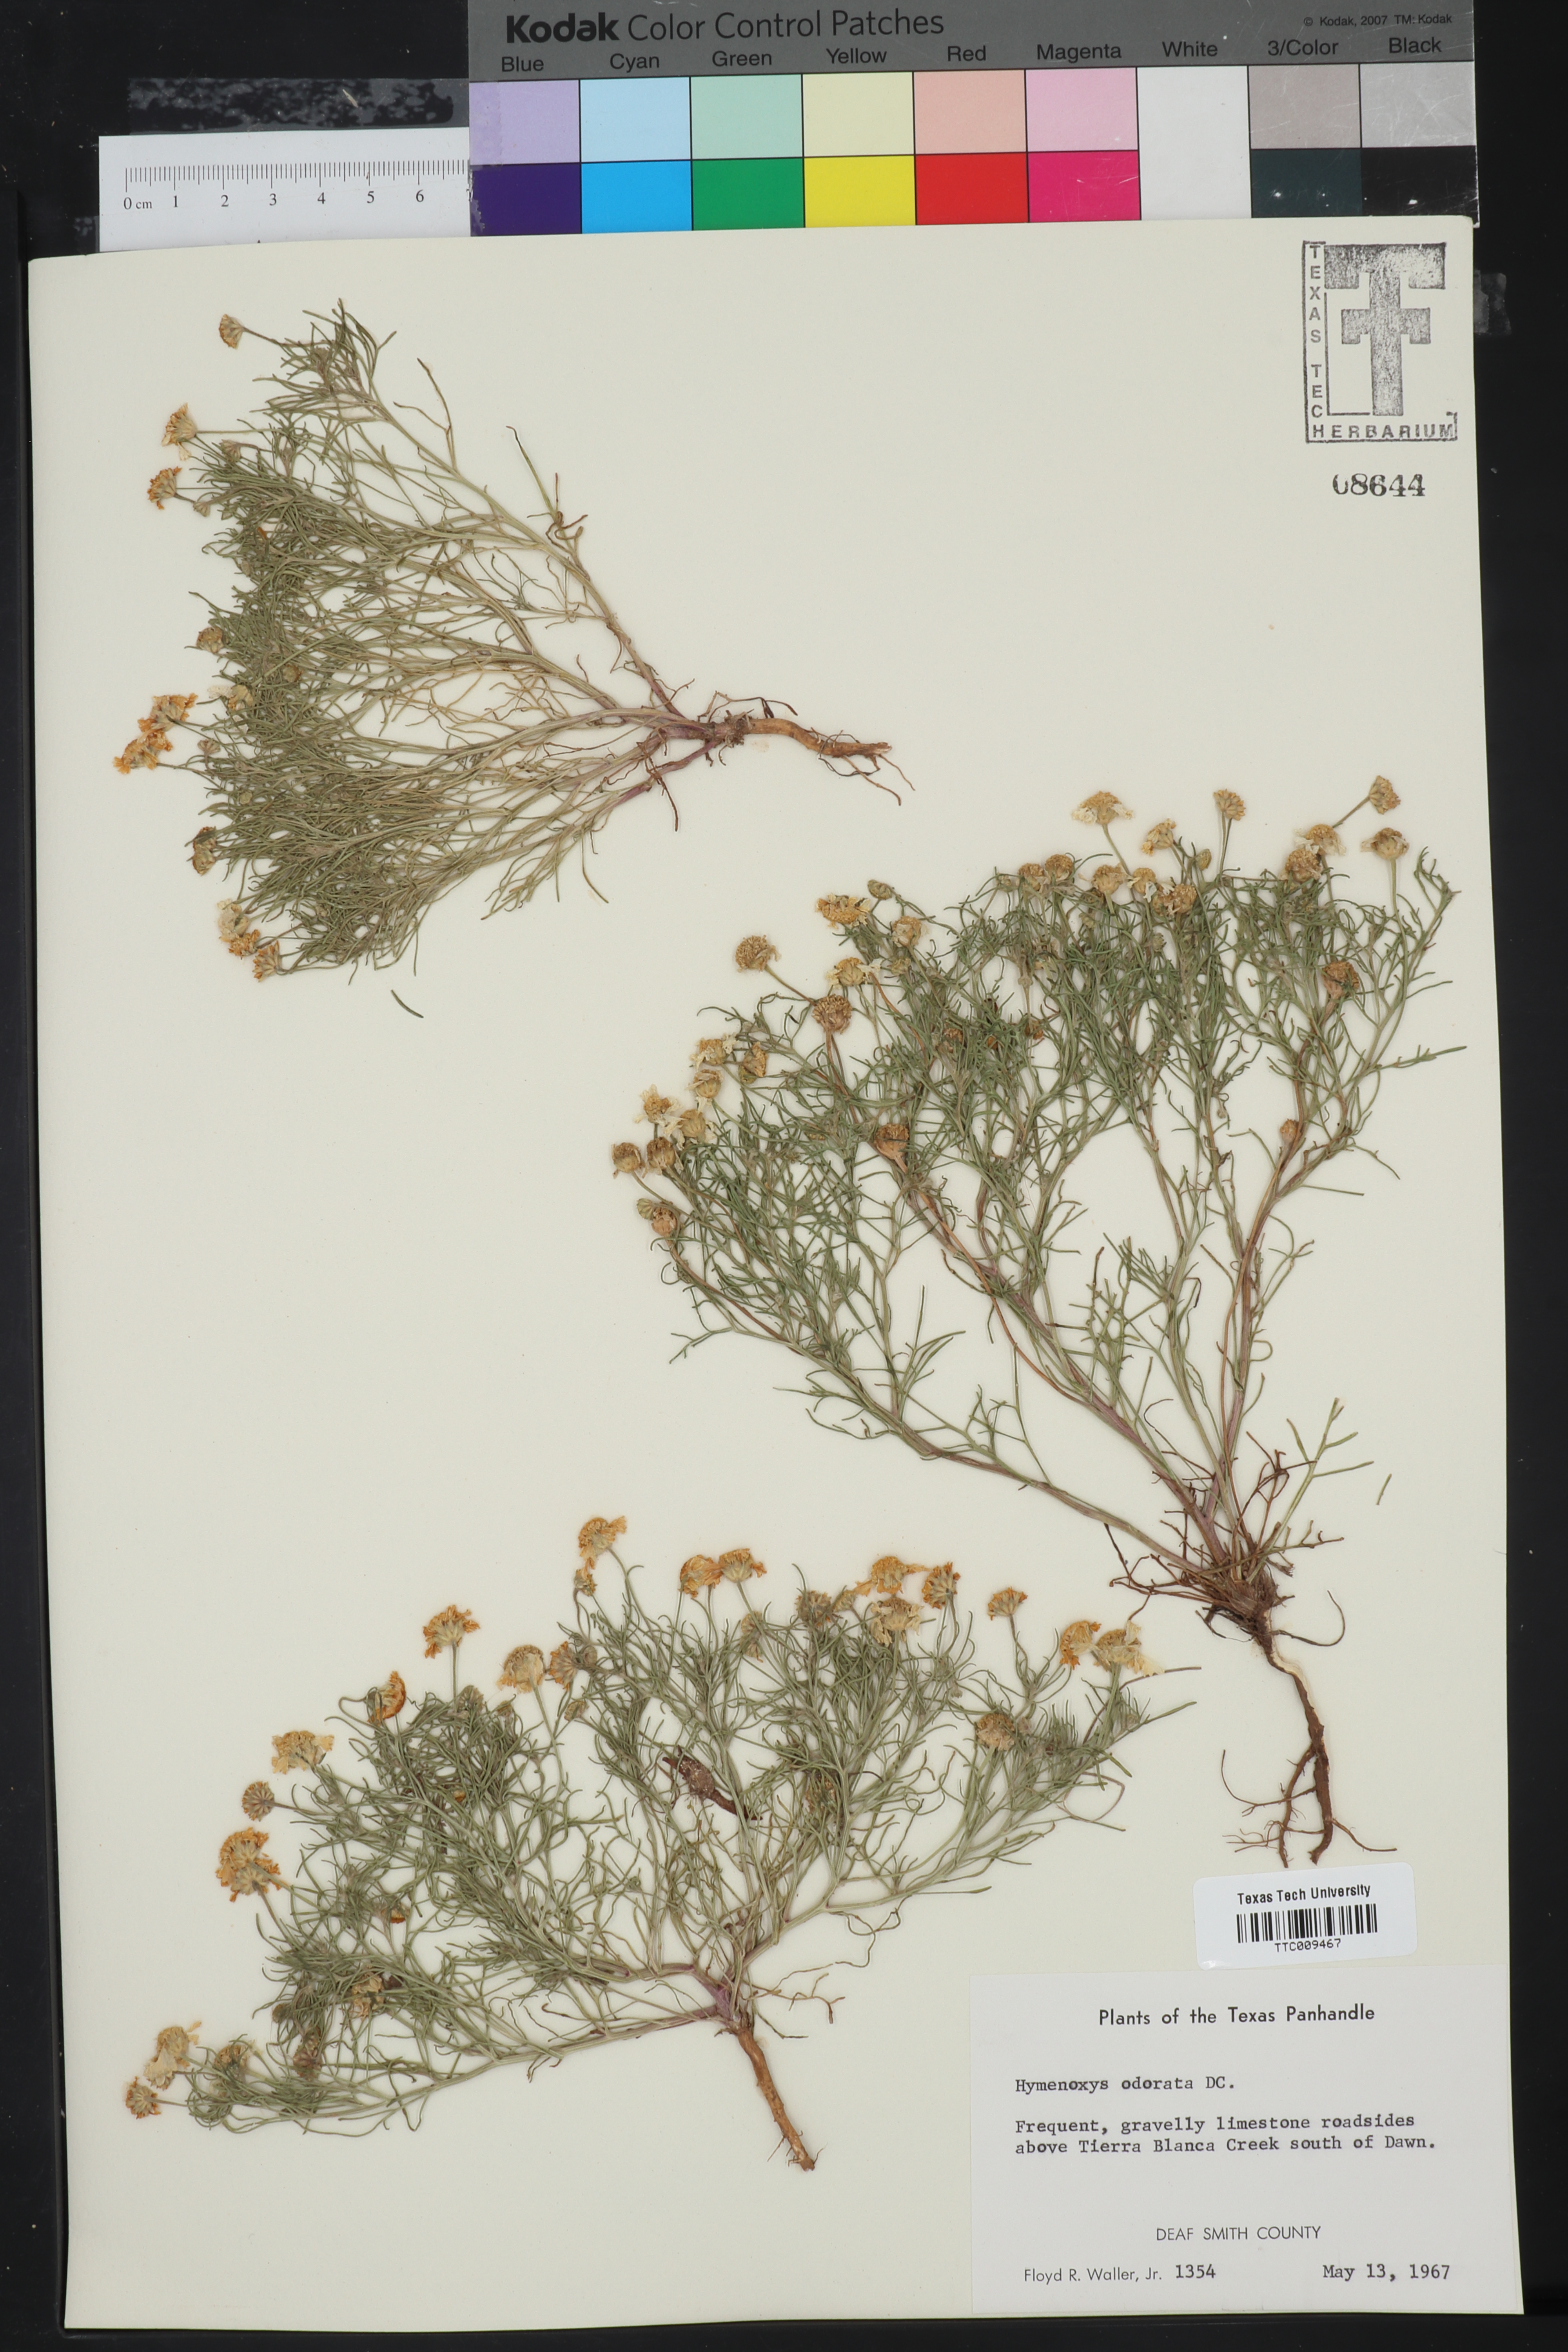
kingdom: Plantae
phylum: Tracheophyta
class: Magnoliopsida
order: Asterales
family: Asteraceae
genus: Hymenoxys
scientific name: Hymenoxys odorata
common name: Bitter rubberweed
